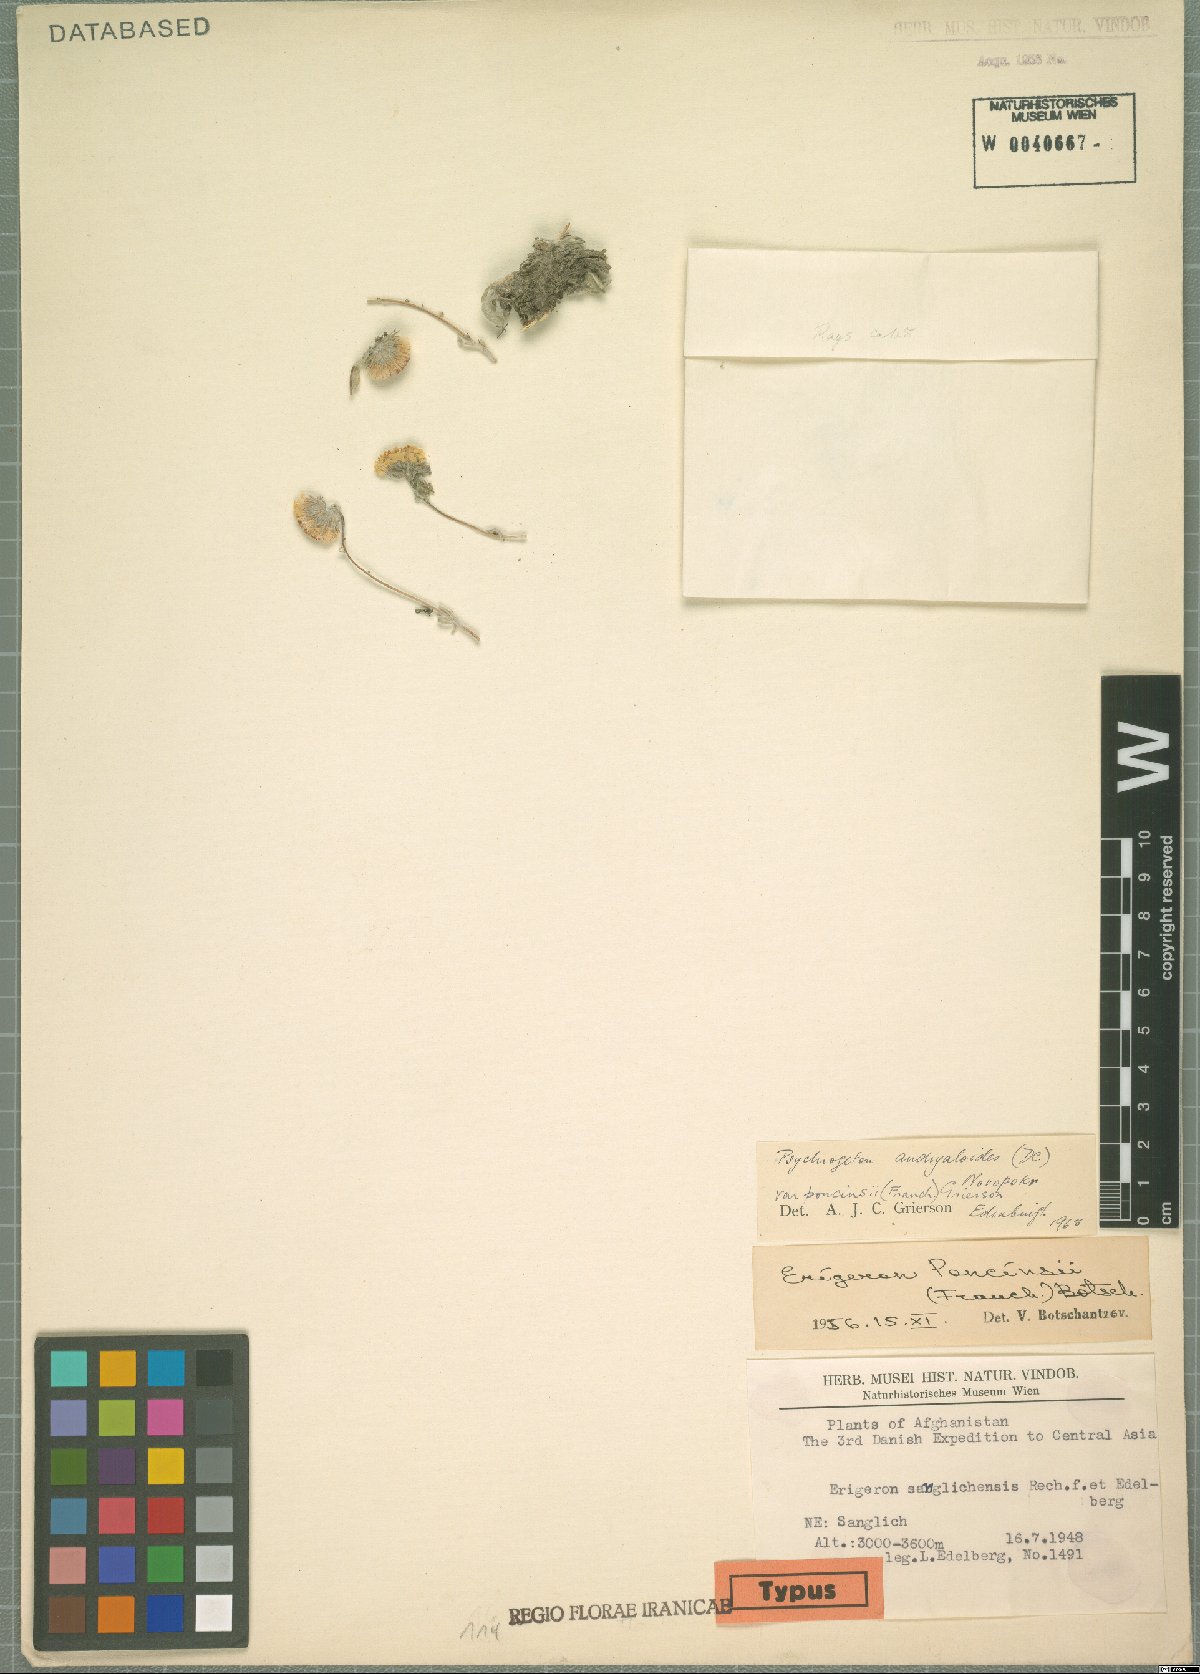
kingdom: Plantae
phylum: Tracheophyta
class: Magnoliopsida
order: Asterales
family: Asteraceae
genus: Psychrogeton
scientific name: Psychrogeton poncinsii
